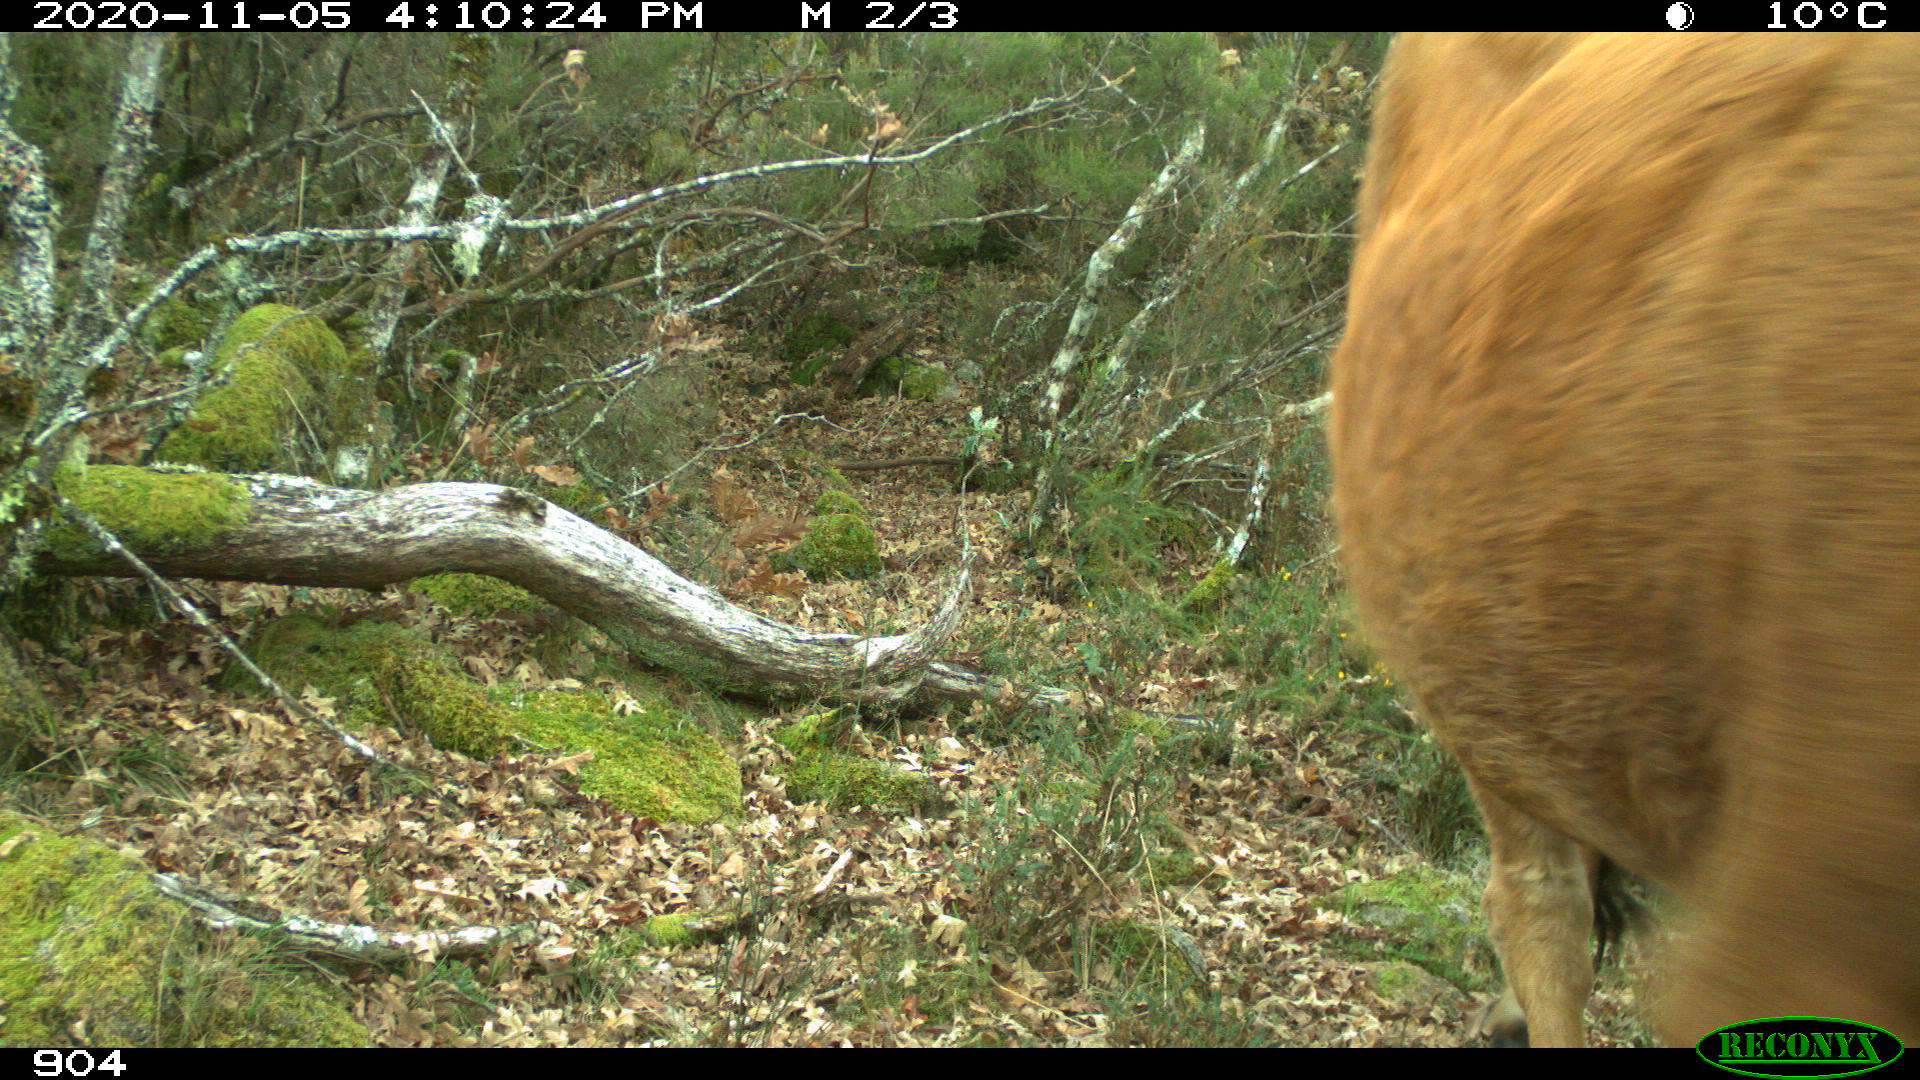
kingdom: Animalia
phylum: Chordata
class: Mammalia
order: Artiodactyla
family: Bovidae
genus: Bos
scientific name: Bos taurus
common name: Domesticated cattle
